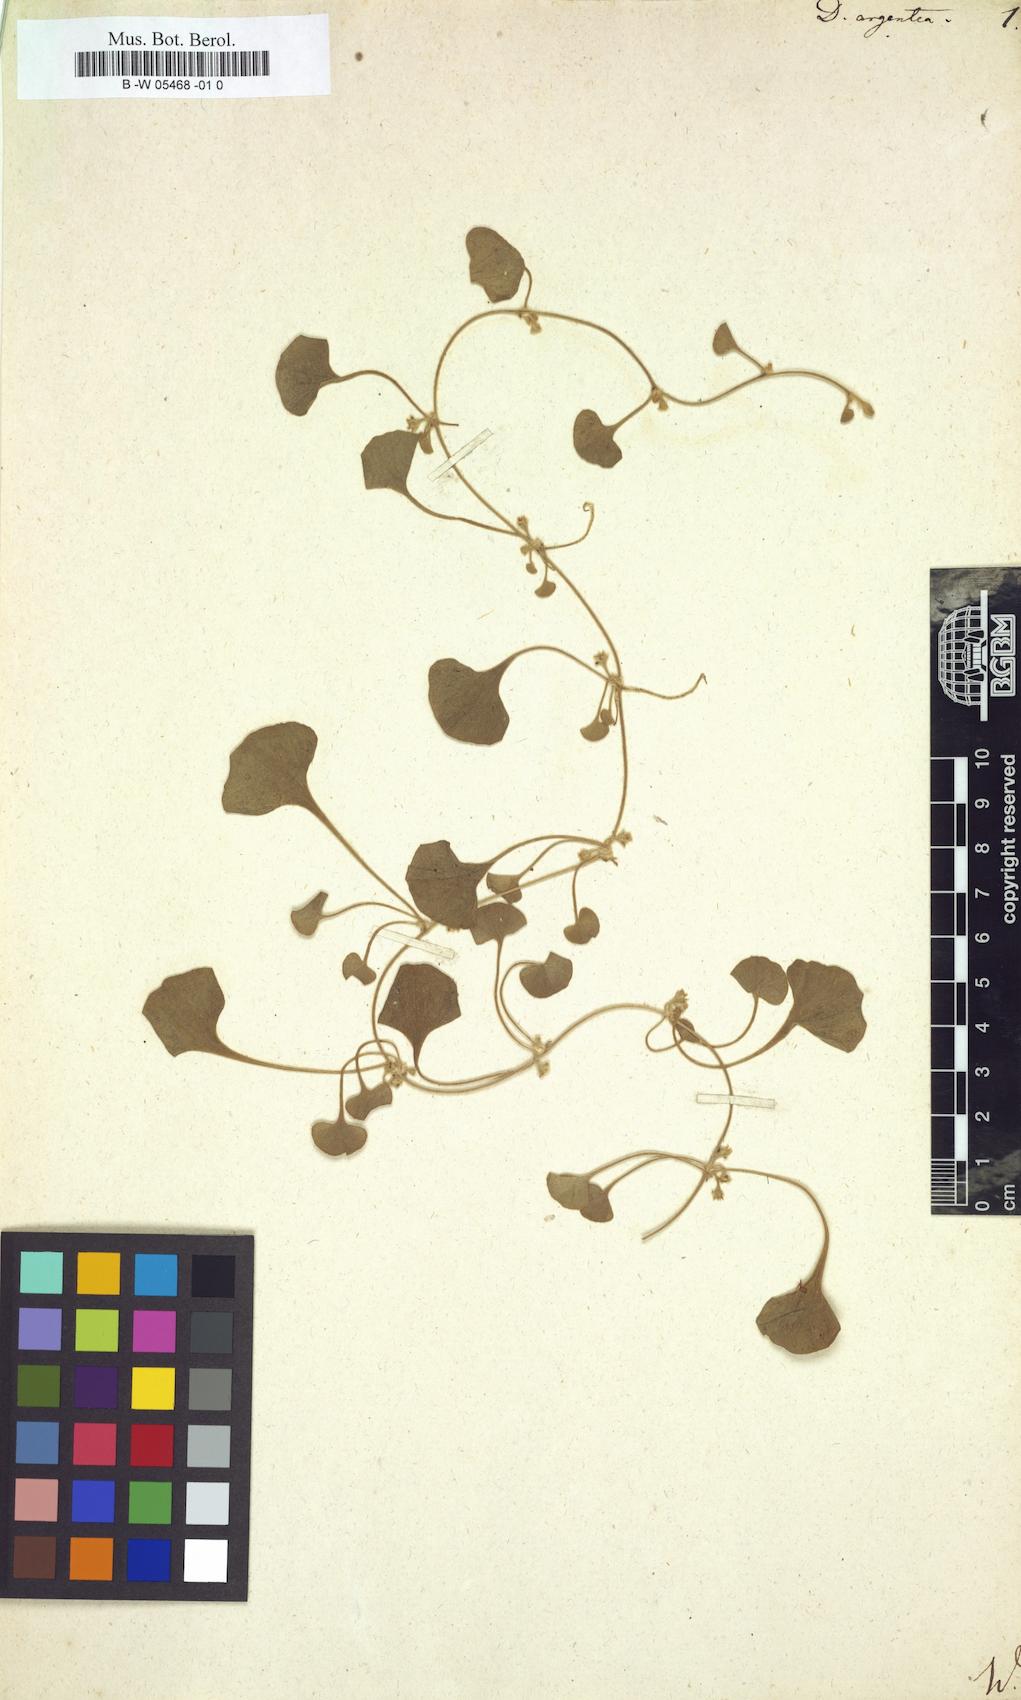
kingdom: Plantae
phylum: Tracheophyta
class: Magnoliopsida
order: Solanales
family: Convolvulaceae
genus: Dichondra
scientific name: Dichondra argentea
